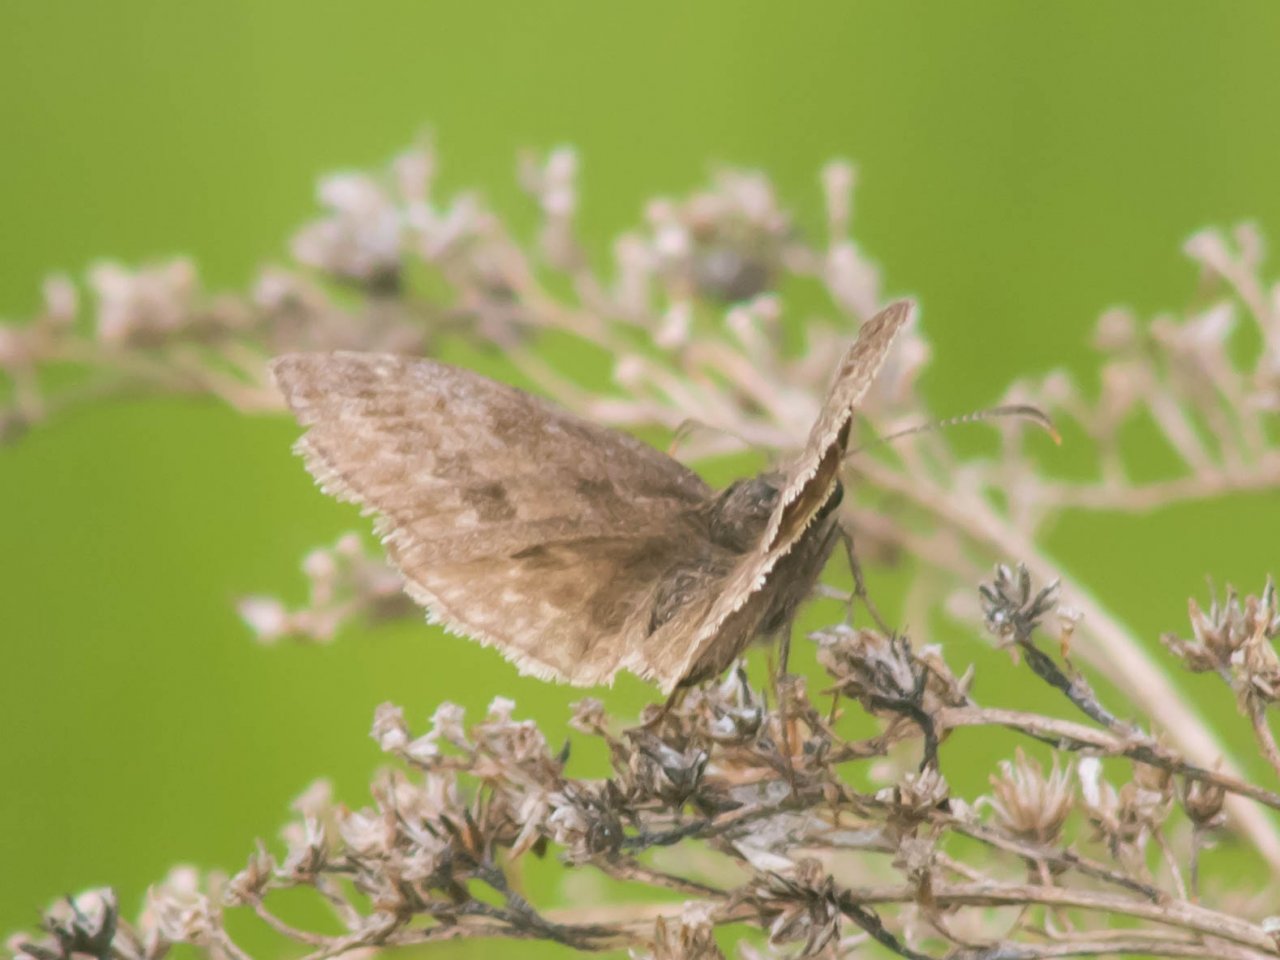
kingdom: Animalia
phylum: Arthropoda
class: Insecta
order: Lepidoptera
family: Hesperiidae
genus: Erynnis
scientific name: Erynnis icelus
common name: Dreamy Duskywing
